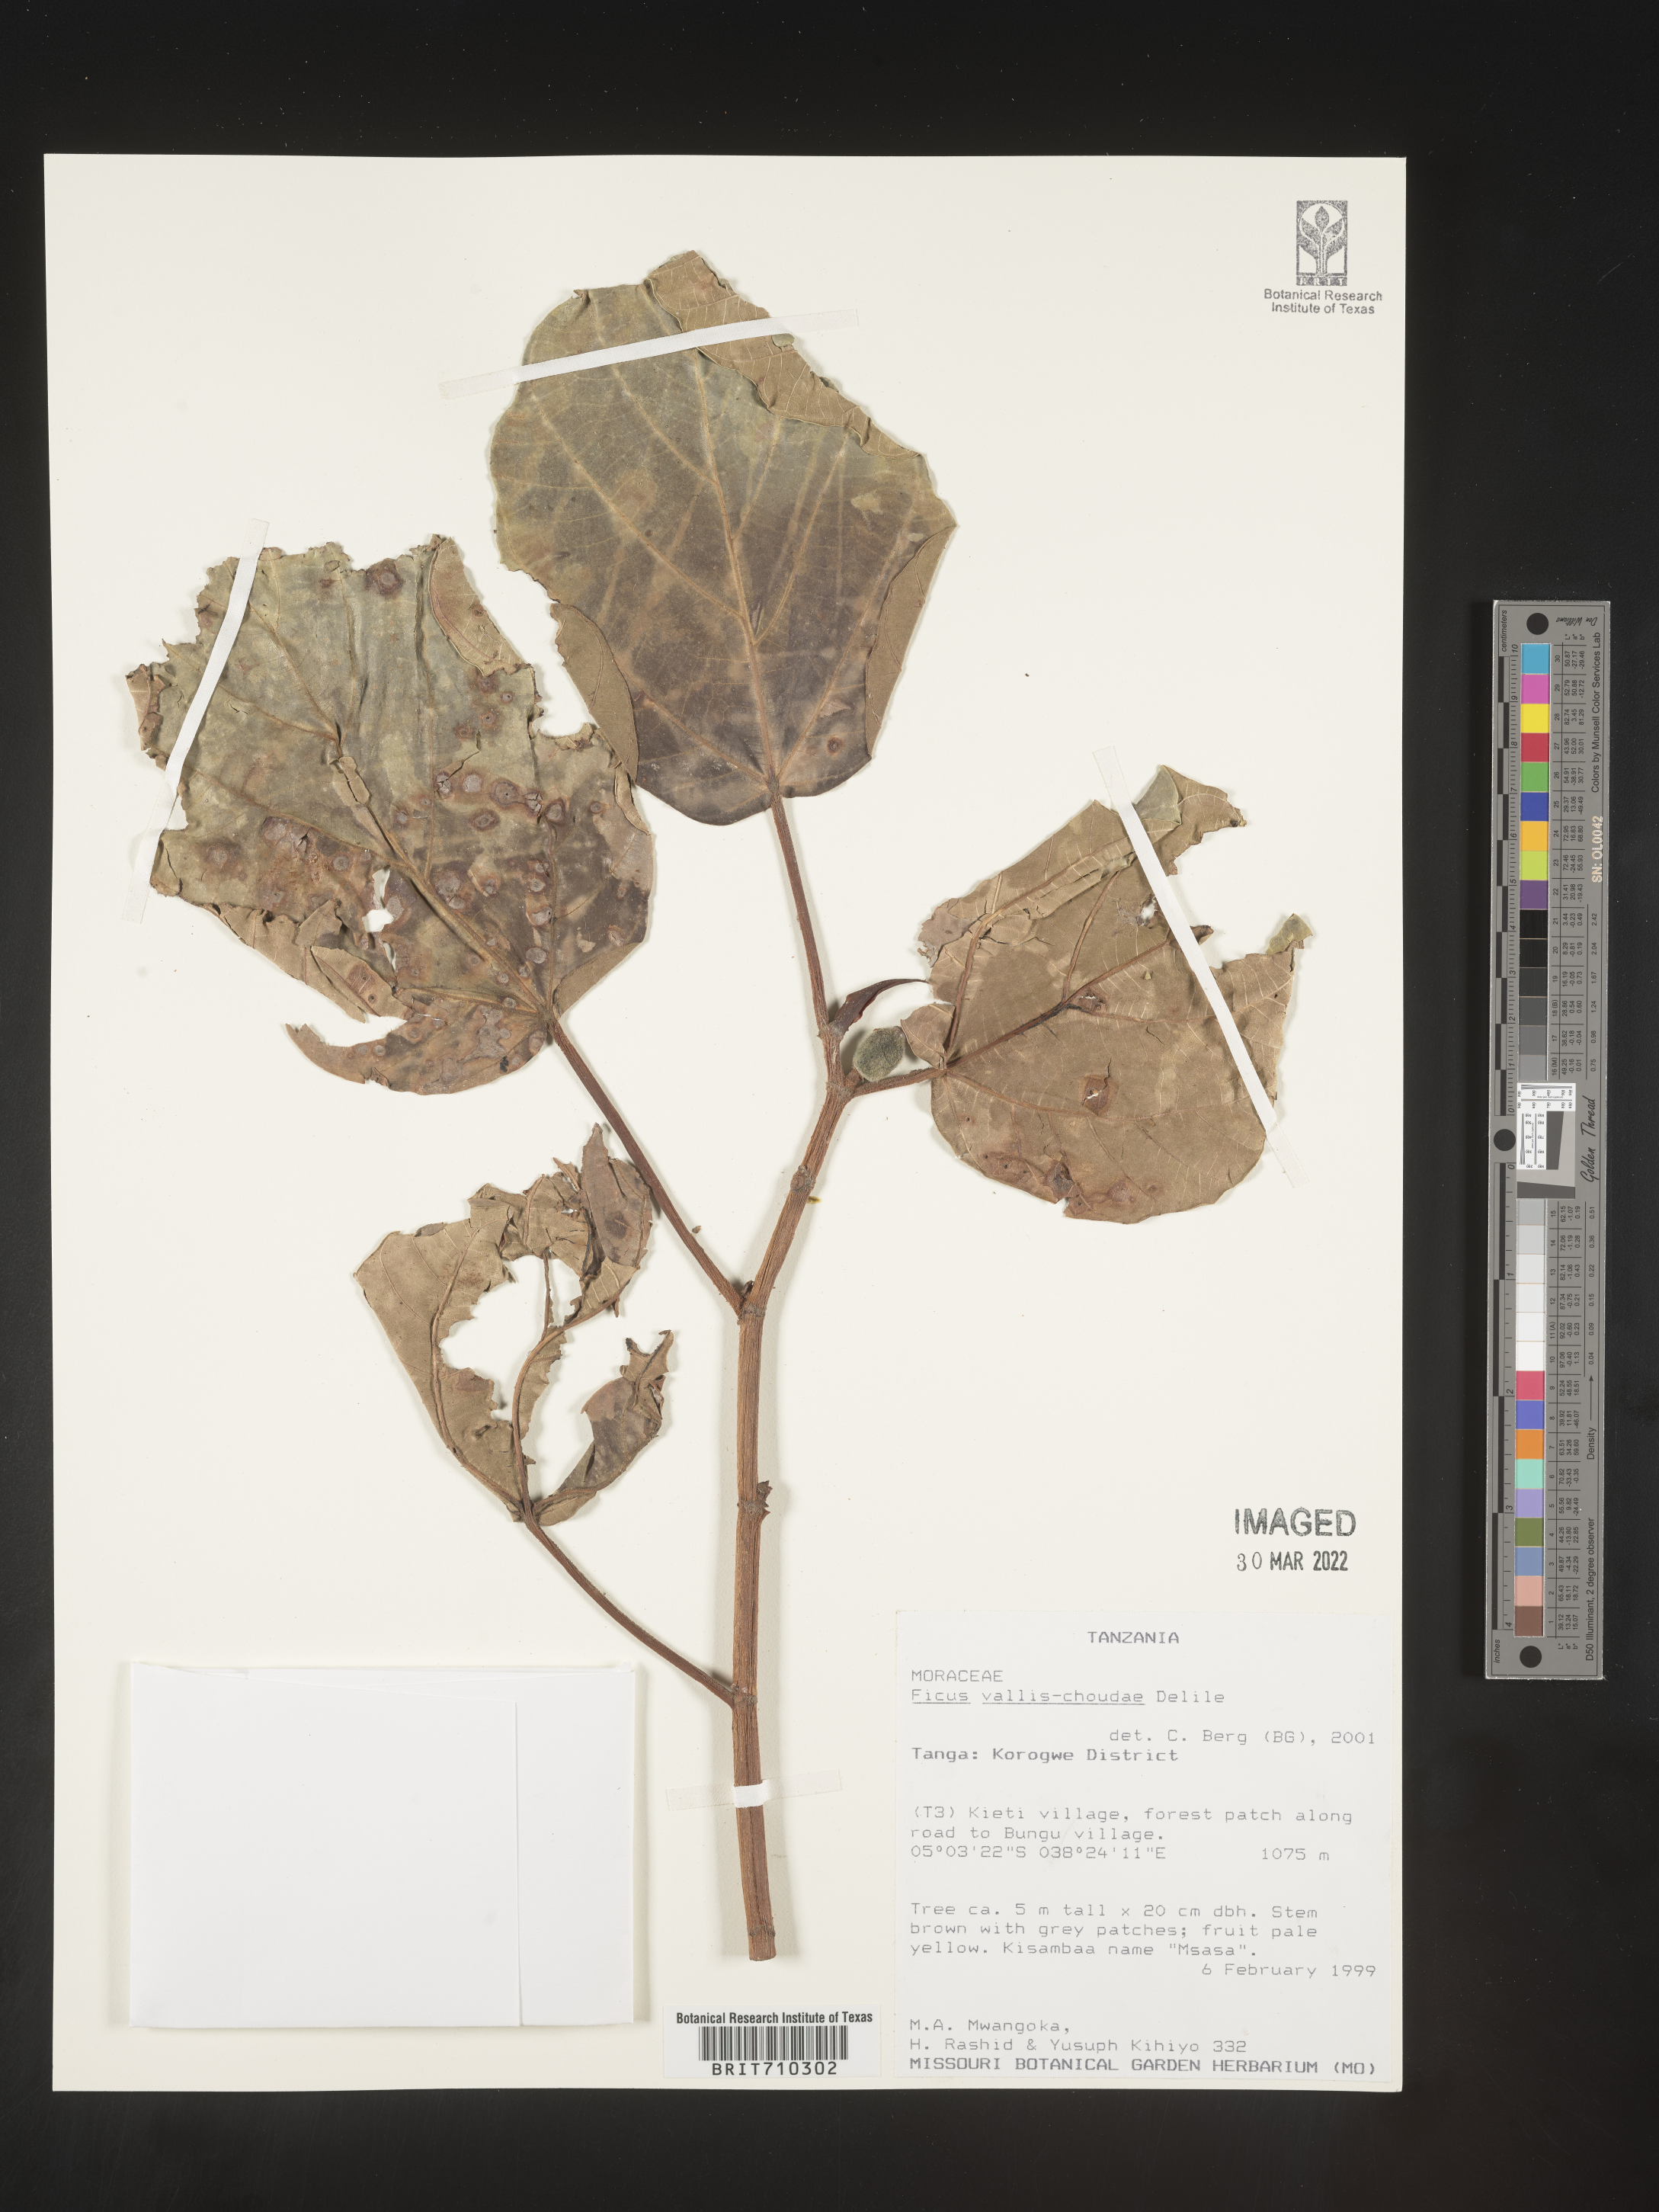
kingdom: Plantae
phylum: Tracheophyta
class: Magnoliopsida
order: Rosales
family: Moraceae
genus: Ficus
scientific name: Ficus
